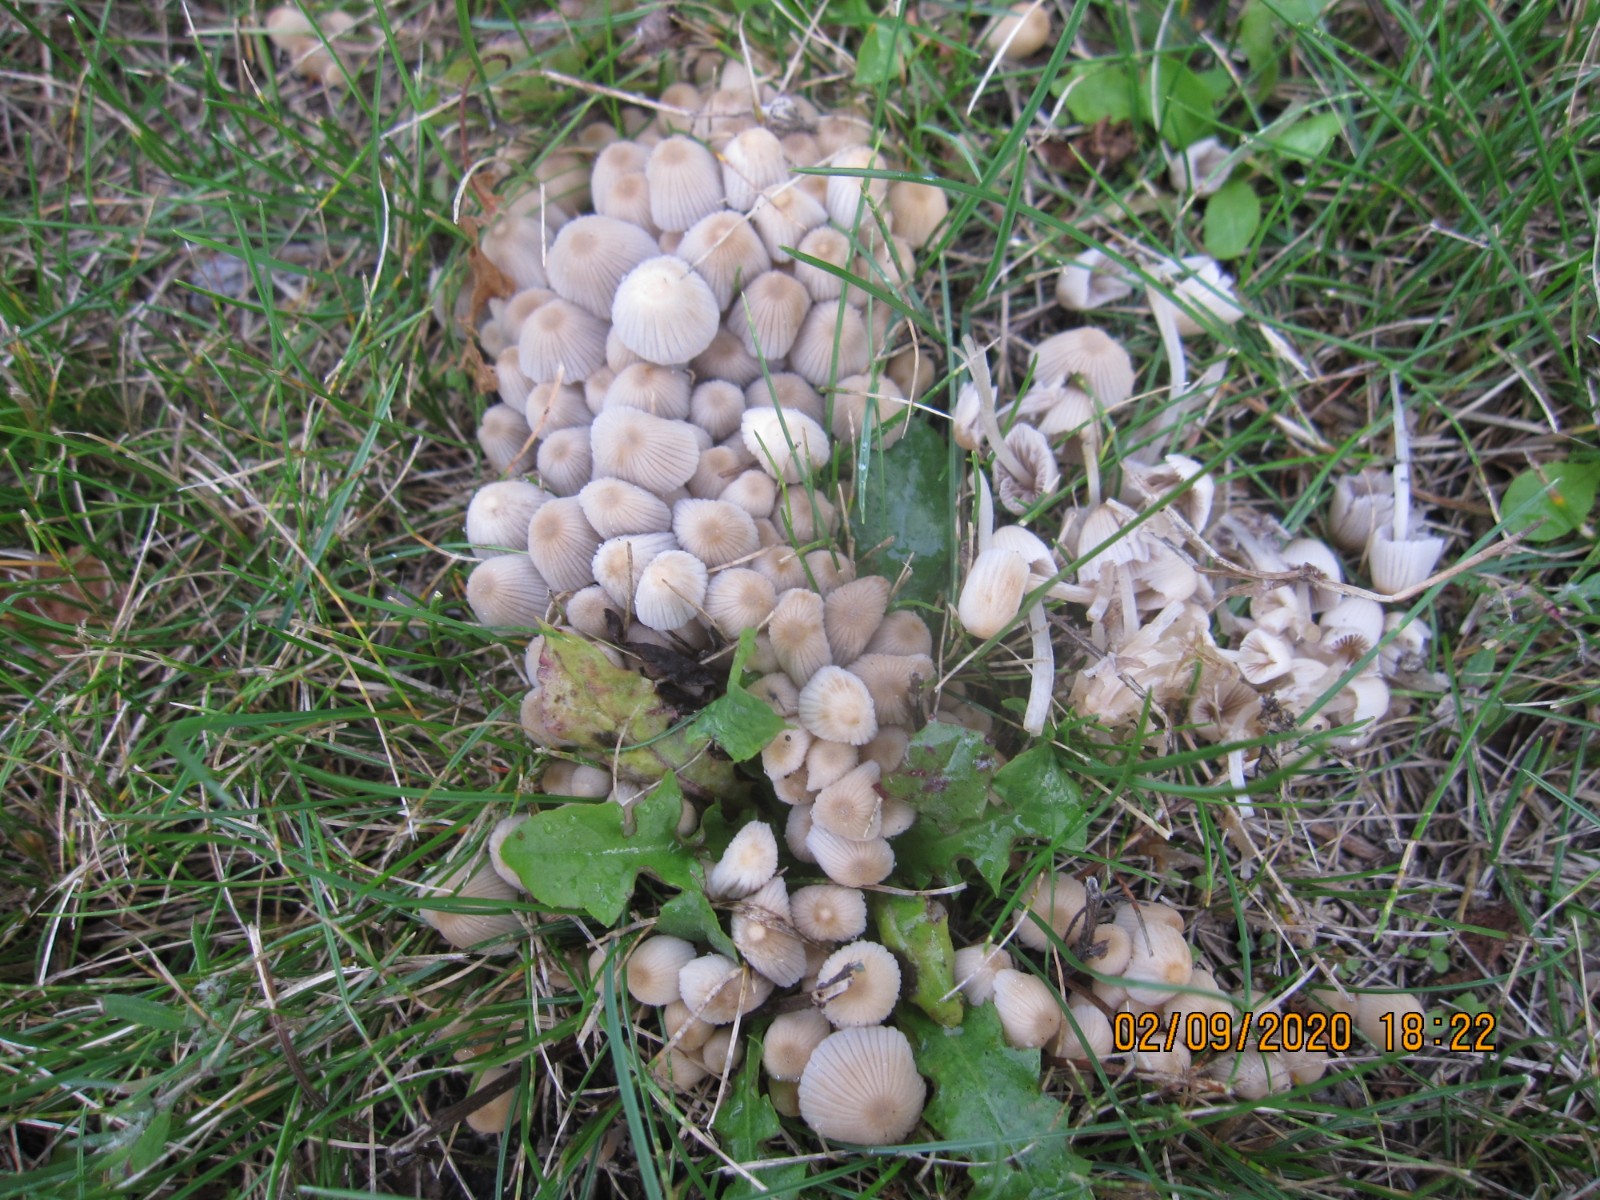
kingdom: Fungi
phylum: Basidiomycota
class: Agaricomycetes
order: Agaricales
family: Psathyrellaceae
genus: Coprinellus
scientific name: Coprinellus disseminatus
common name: bredsået blækhat
